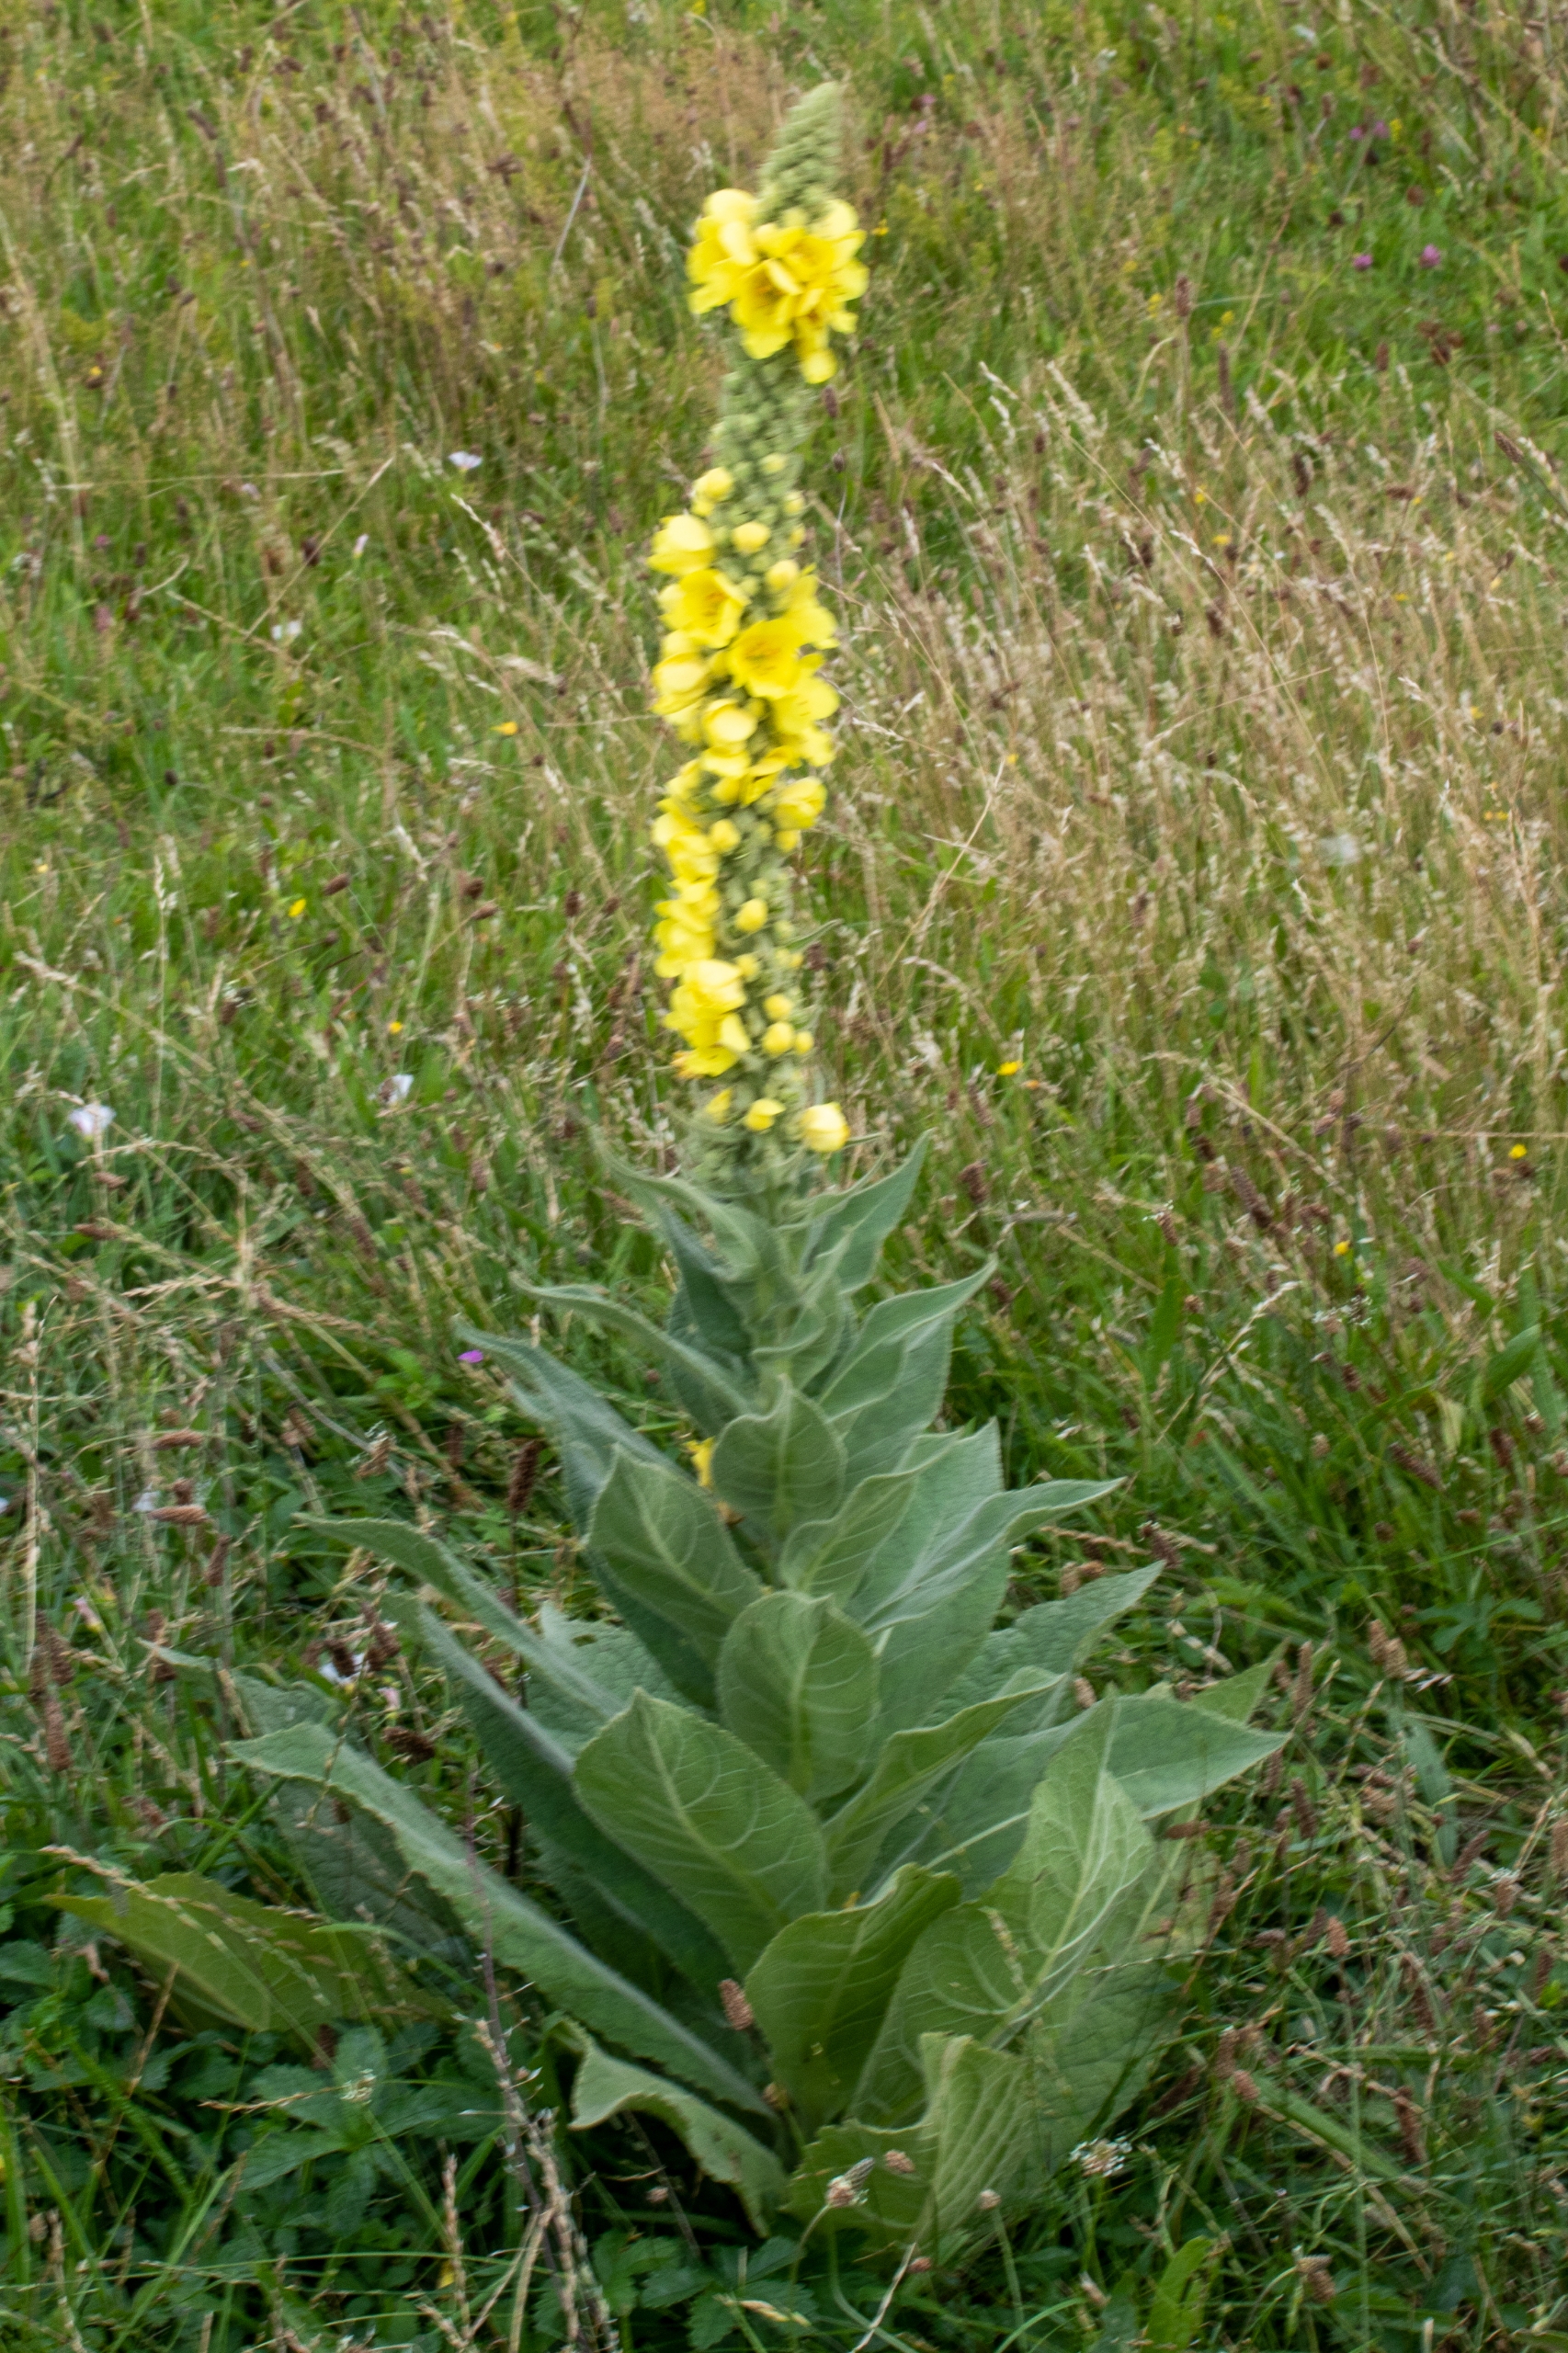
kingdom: Plantae
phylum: Tracheophyta
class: Magnoliopsida
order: Lamiales
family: Scrophulariaceae
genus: Verbascum
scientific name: Verbascum densiflorum
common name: Uldbladet kongelys
